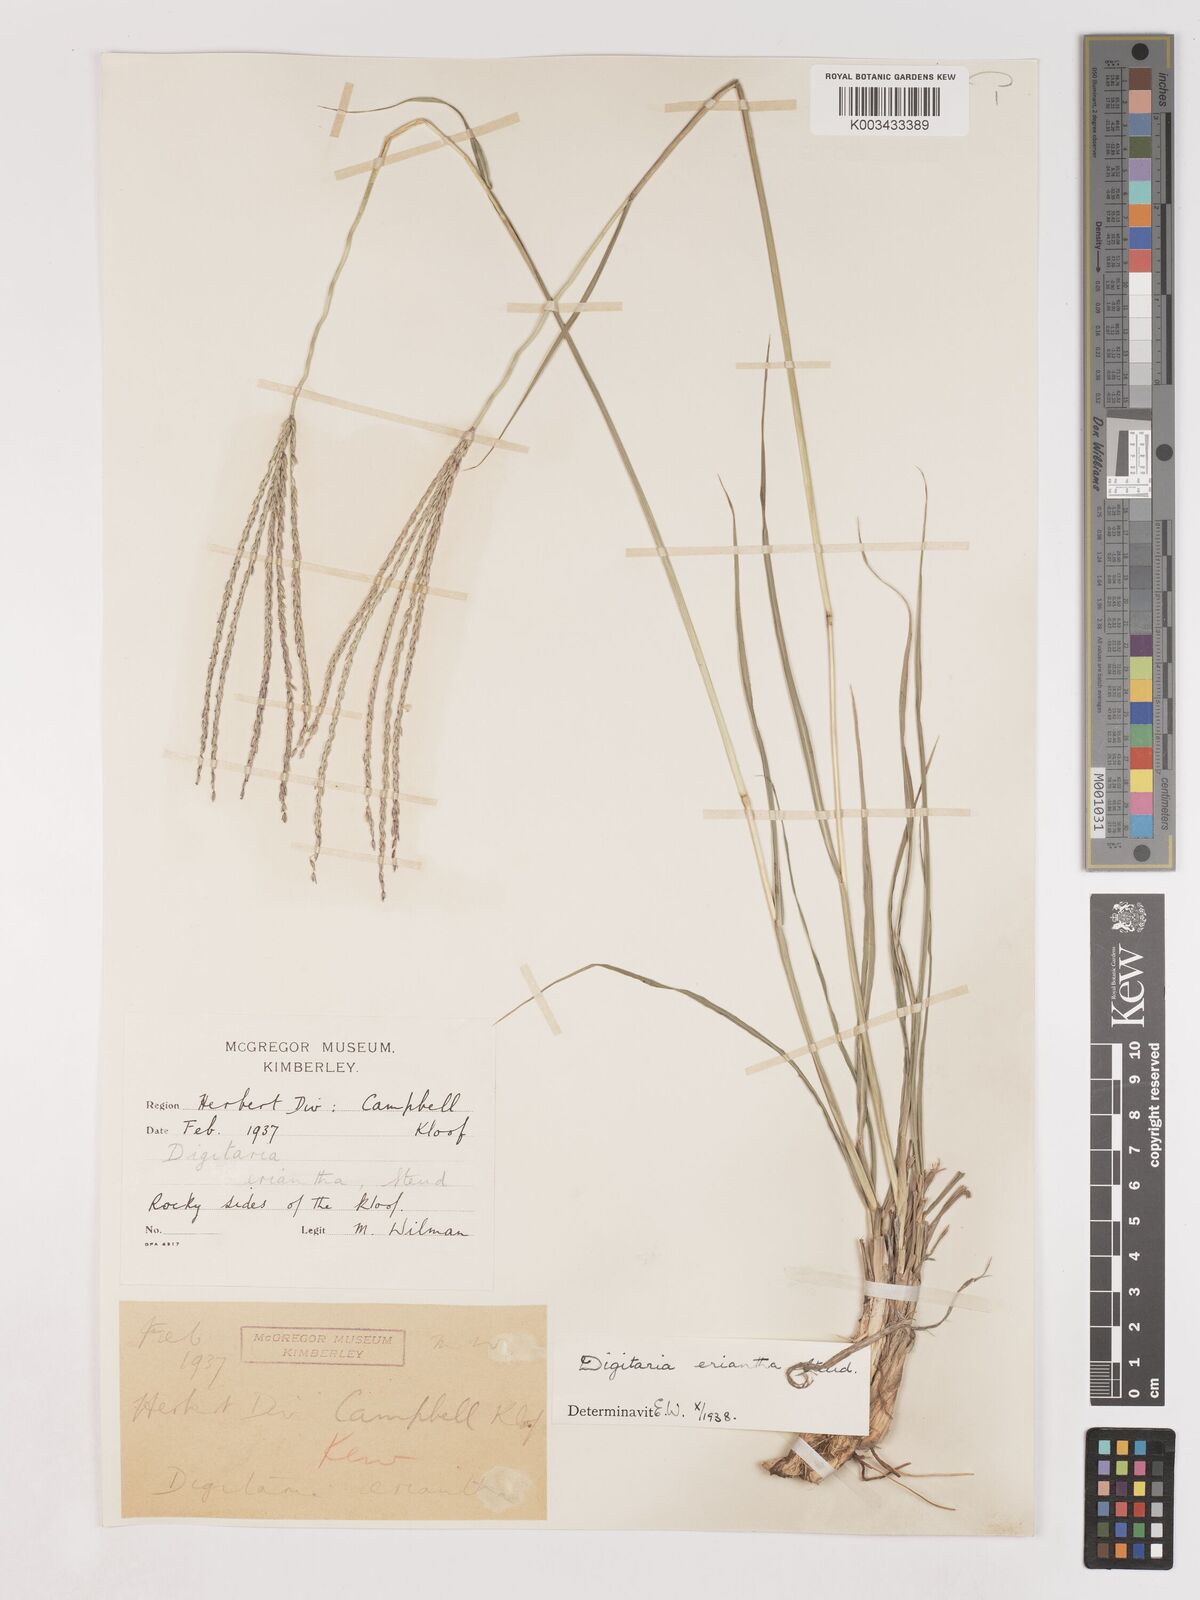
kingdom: Plantae
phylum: Tracheophyta
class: Liliopsida
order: Poales
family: Poaceae
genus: Digitaria
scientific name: Digitaria eriantha
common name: Digitgrass
